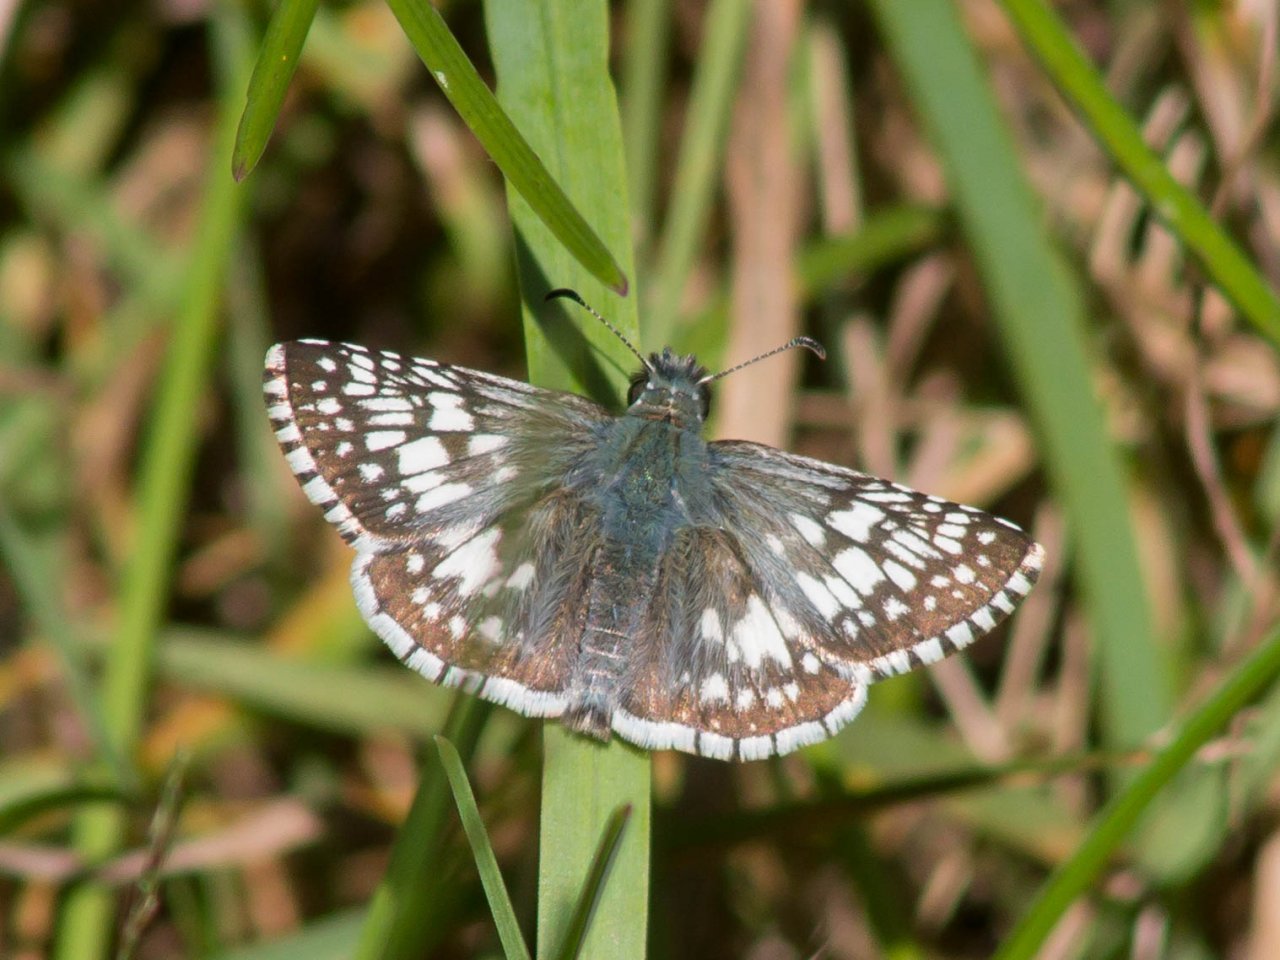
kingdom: Animalia
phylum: Arthropoda
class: Insecta
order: Lepidoptera
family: Hesperiidae
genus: Pyrgus
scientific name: Pyrgus communis
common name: Common Checkered-Skipper
